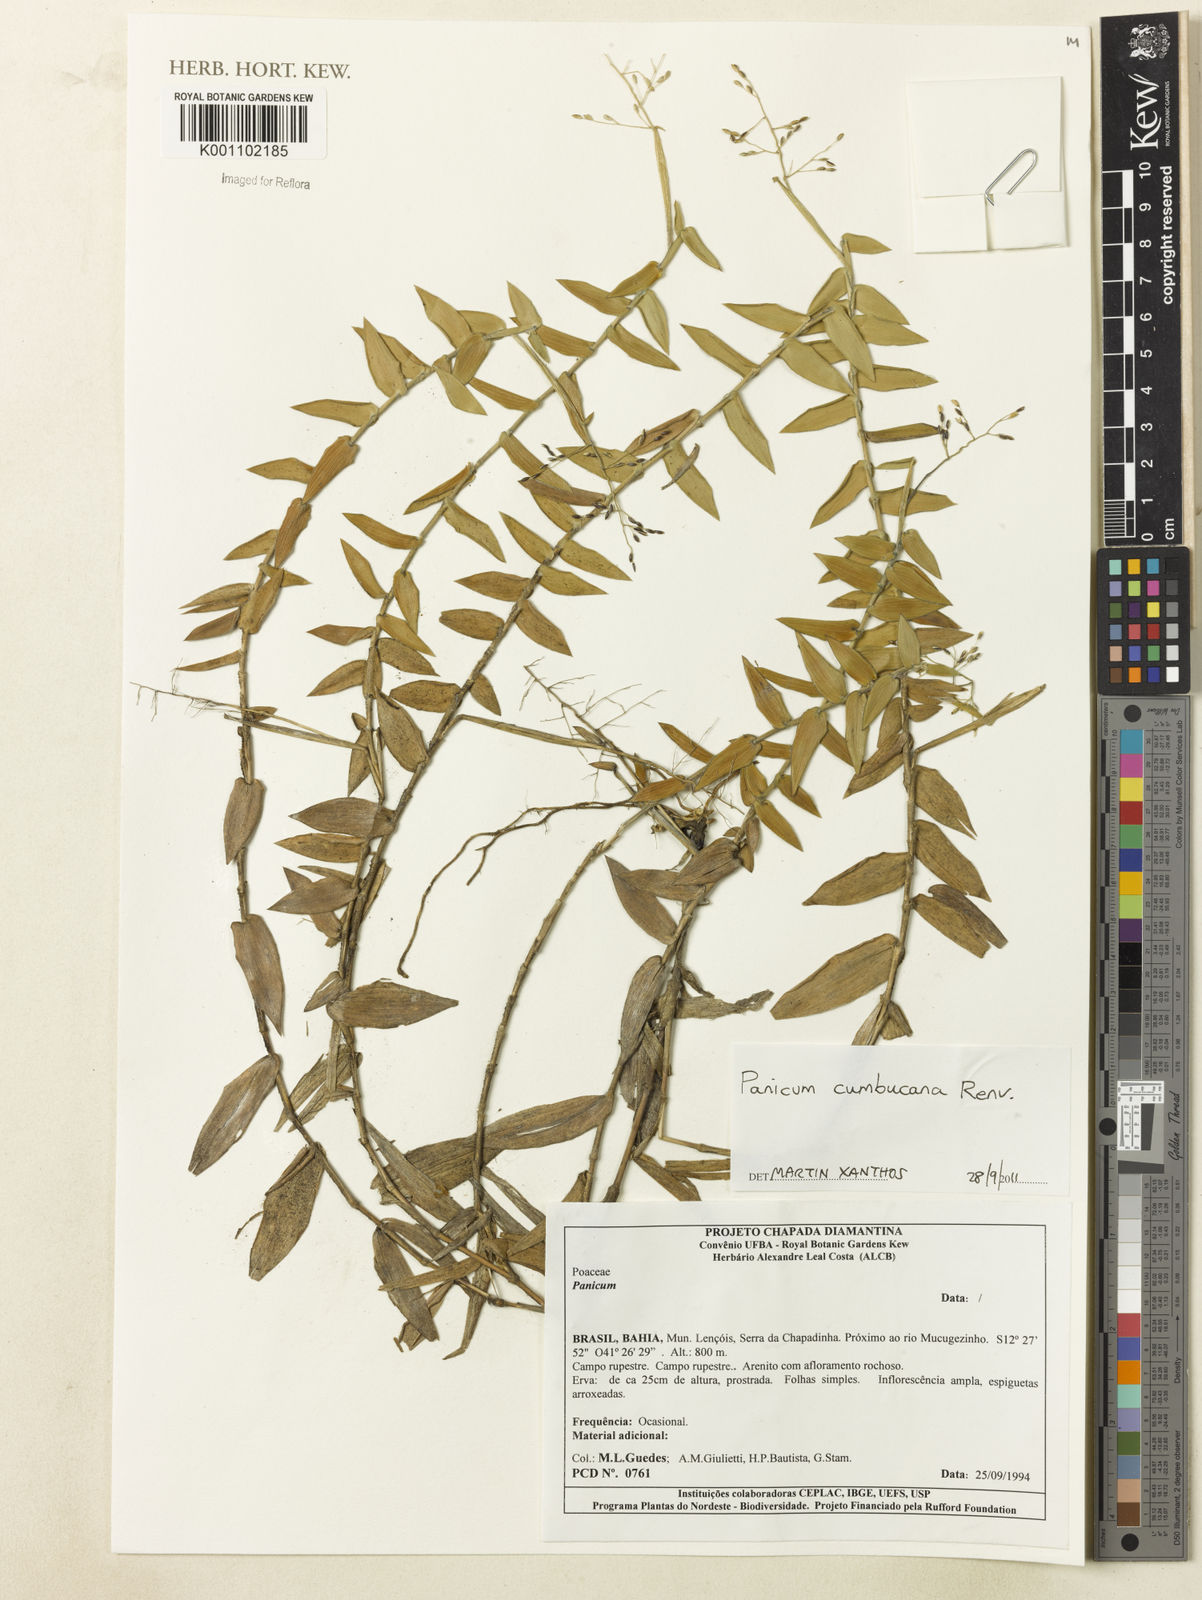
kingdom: Plantae
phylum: Tracheophyta
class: Liliopsida
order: Poales
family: Poaceae
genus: Panicum
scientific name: Panicum
